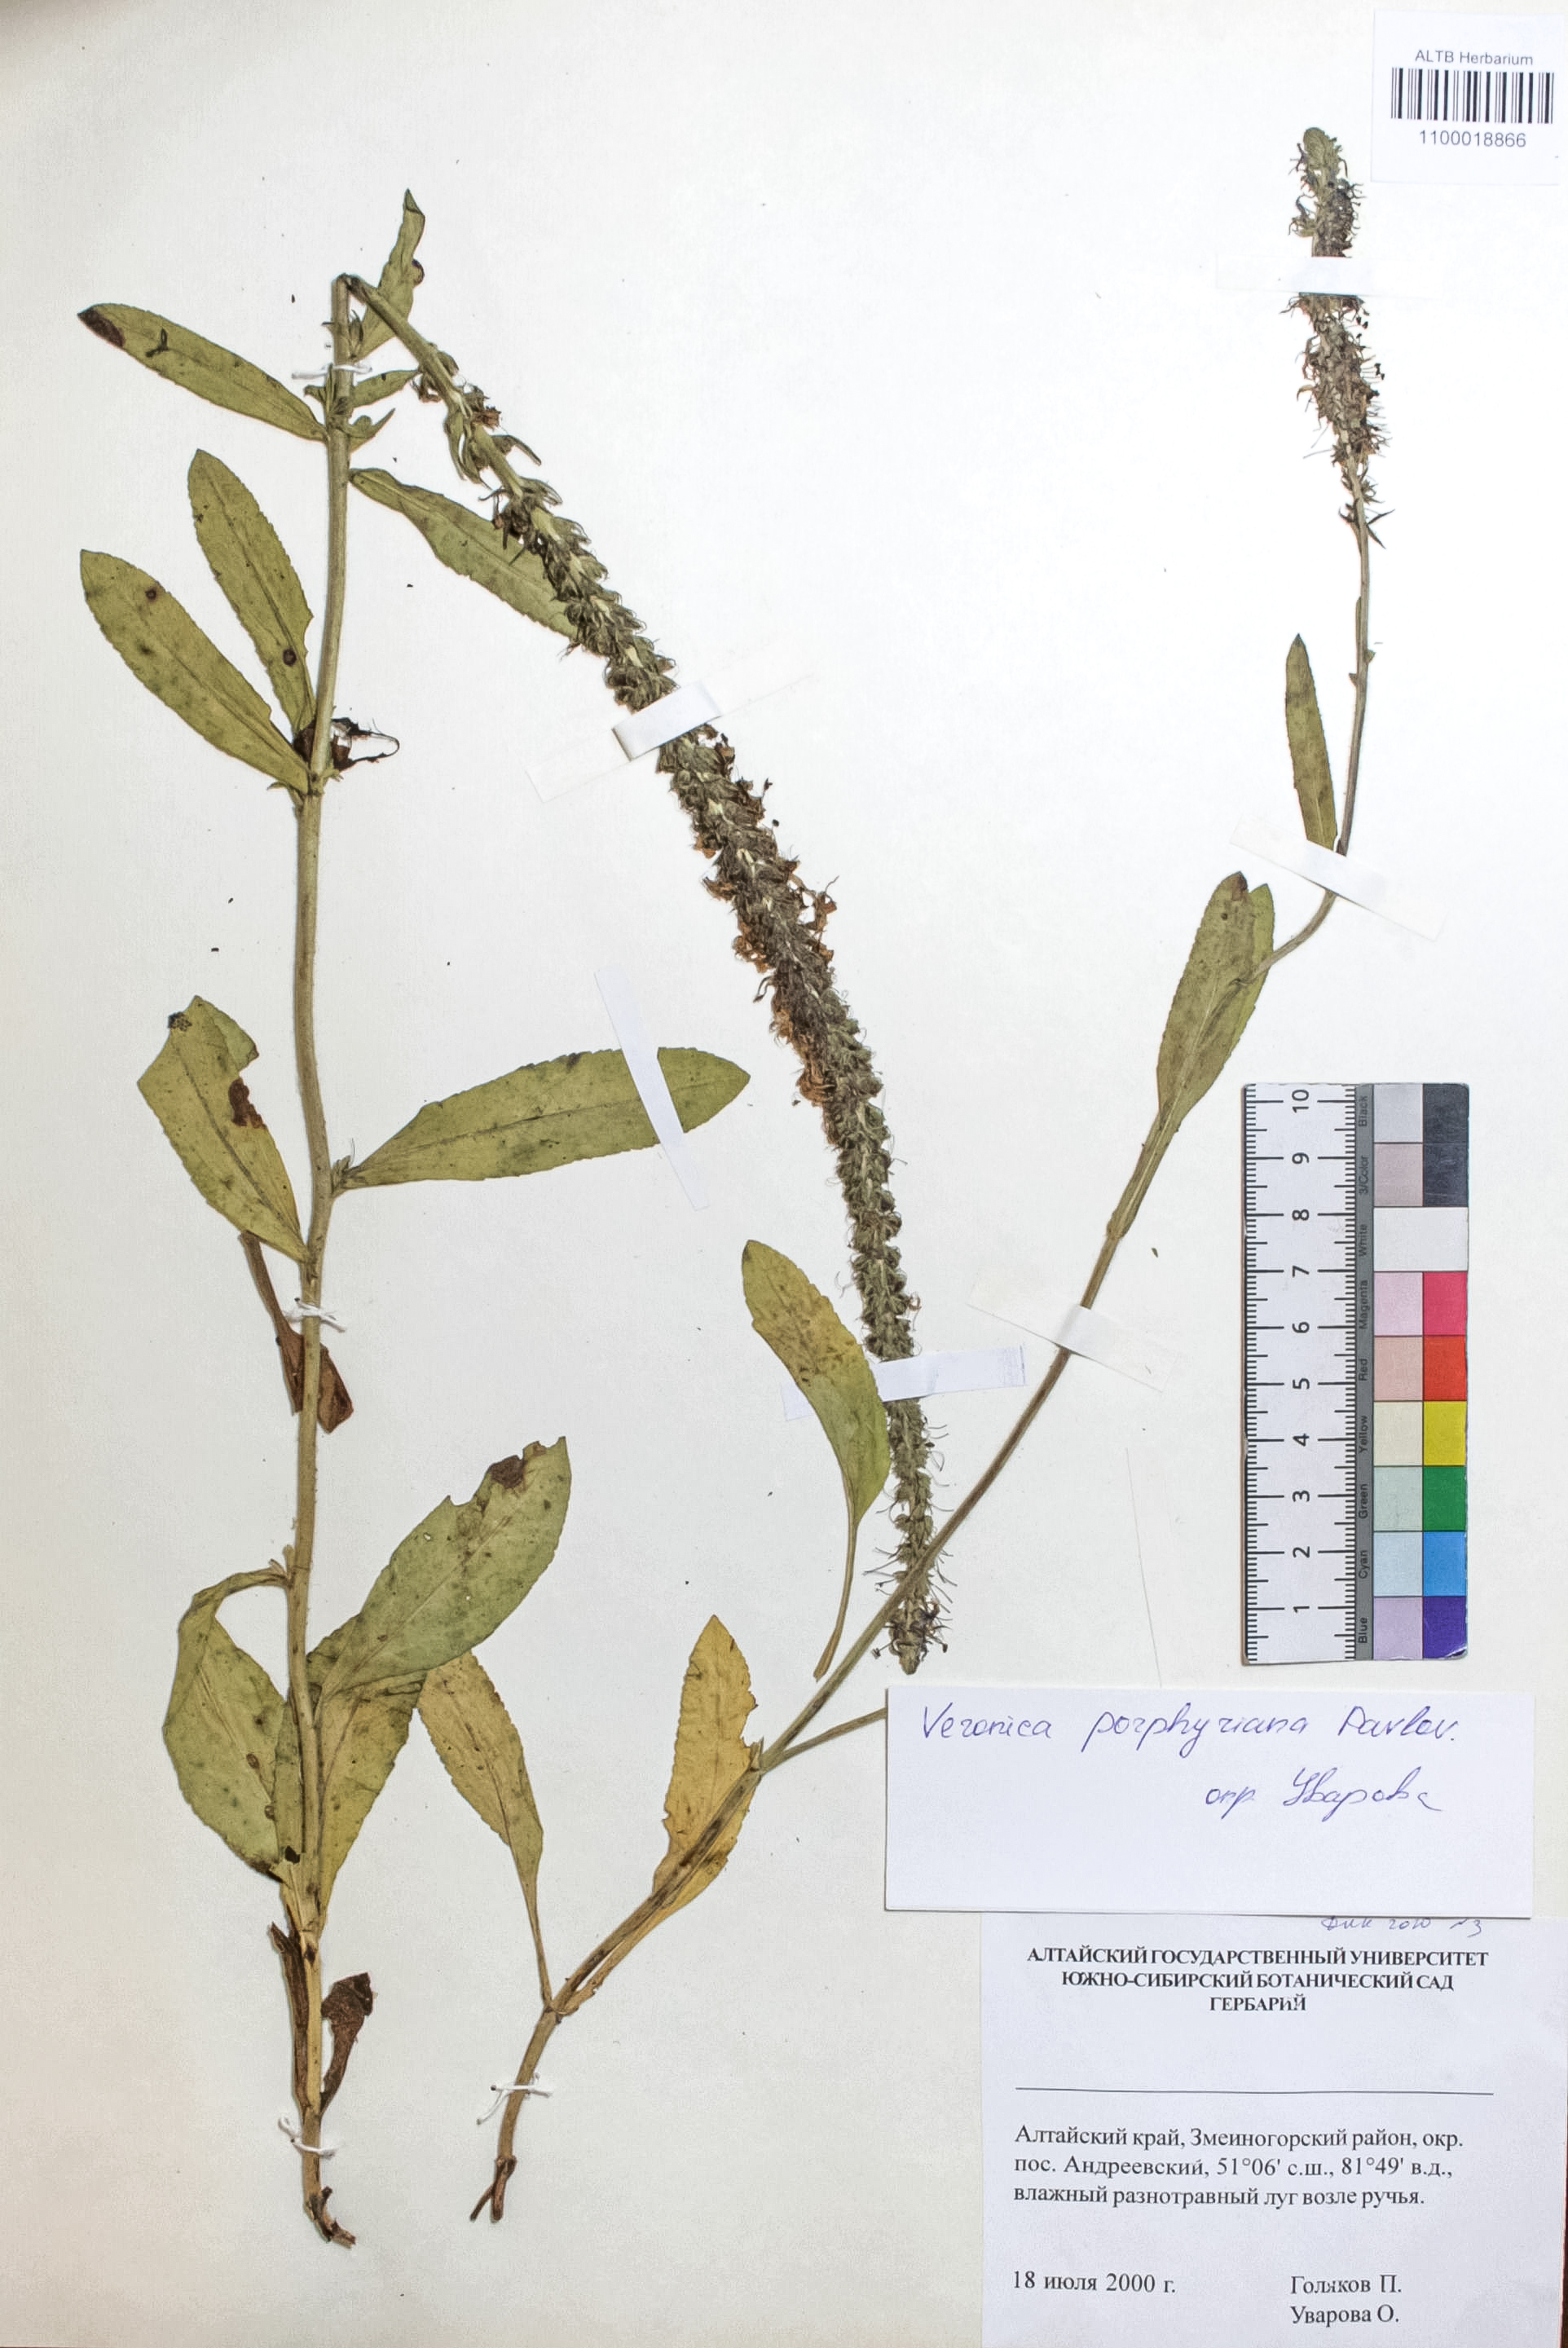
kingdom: Plantae
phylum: Tracheophyta
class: Magnoliopsida
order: Lamiales
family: Plantaginaceae
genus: Veronica
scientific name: Veronica porphyriana
